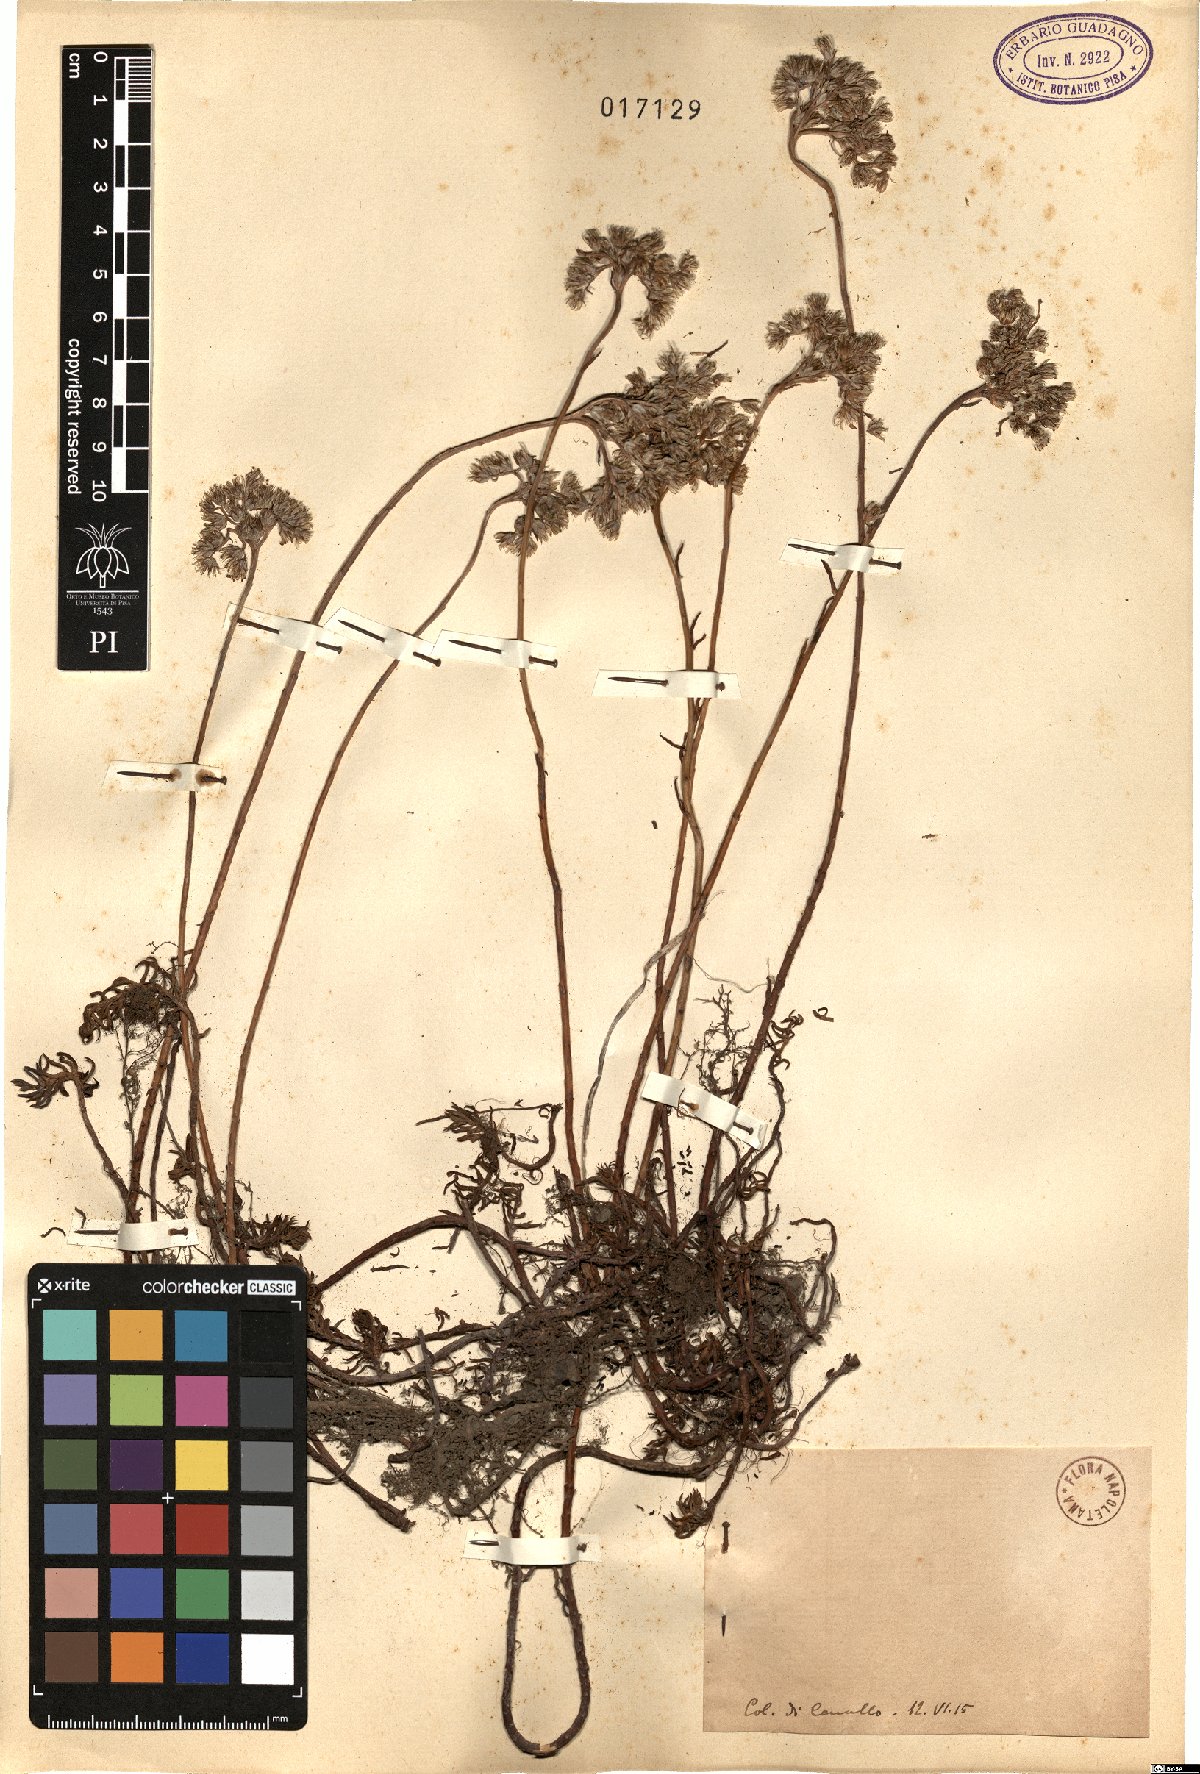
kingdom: Plantae
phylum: Tracheophyta
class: Magnoliopsida
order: Saxifragales
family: Crassulaceae
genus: Sedum
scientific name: Sedum
